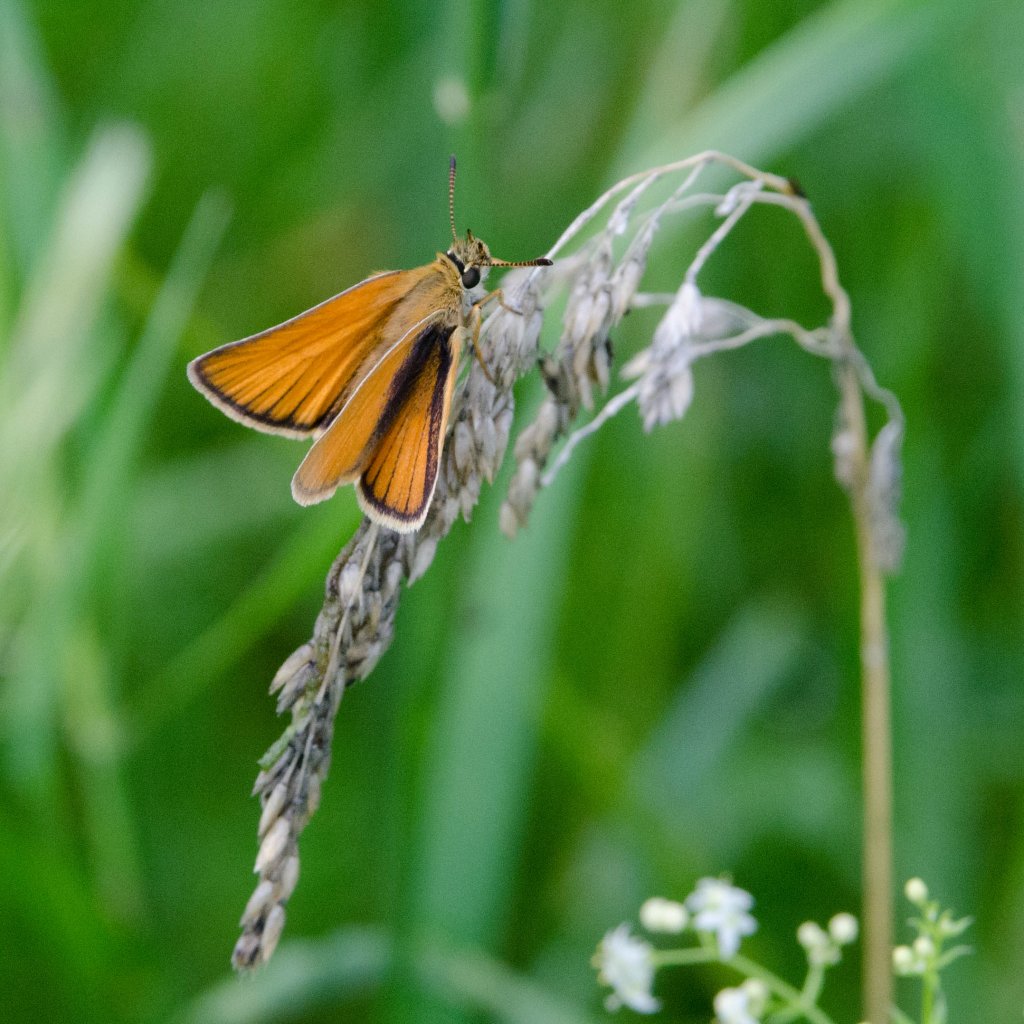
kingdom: Animalia
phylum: Arthropoda
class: Insecta
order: Lepidoptera
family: Hesperiidae
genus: Thymelicus
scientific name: Thymelicus lineola
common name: European Skipper
